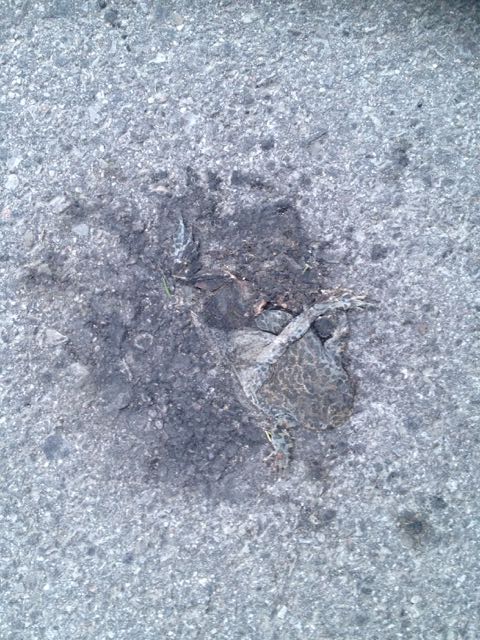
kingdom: Animalia
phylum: Chordata
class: Amphibia
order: Anura
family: Bufonidae
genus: Bufotes
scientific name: Bufotes viridis
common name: European green toad
